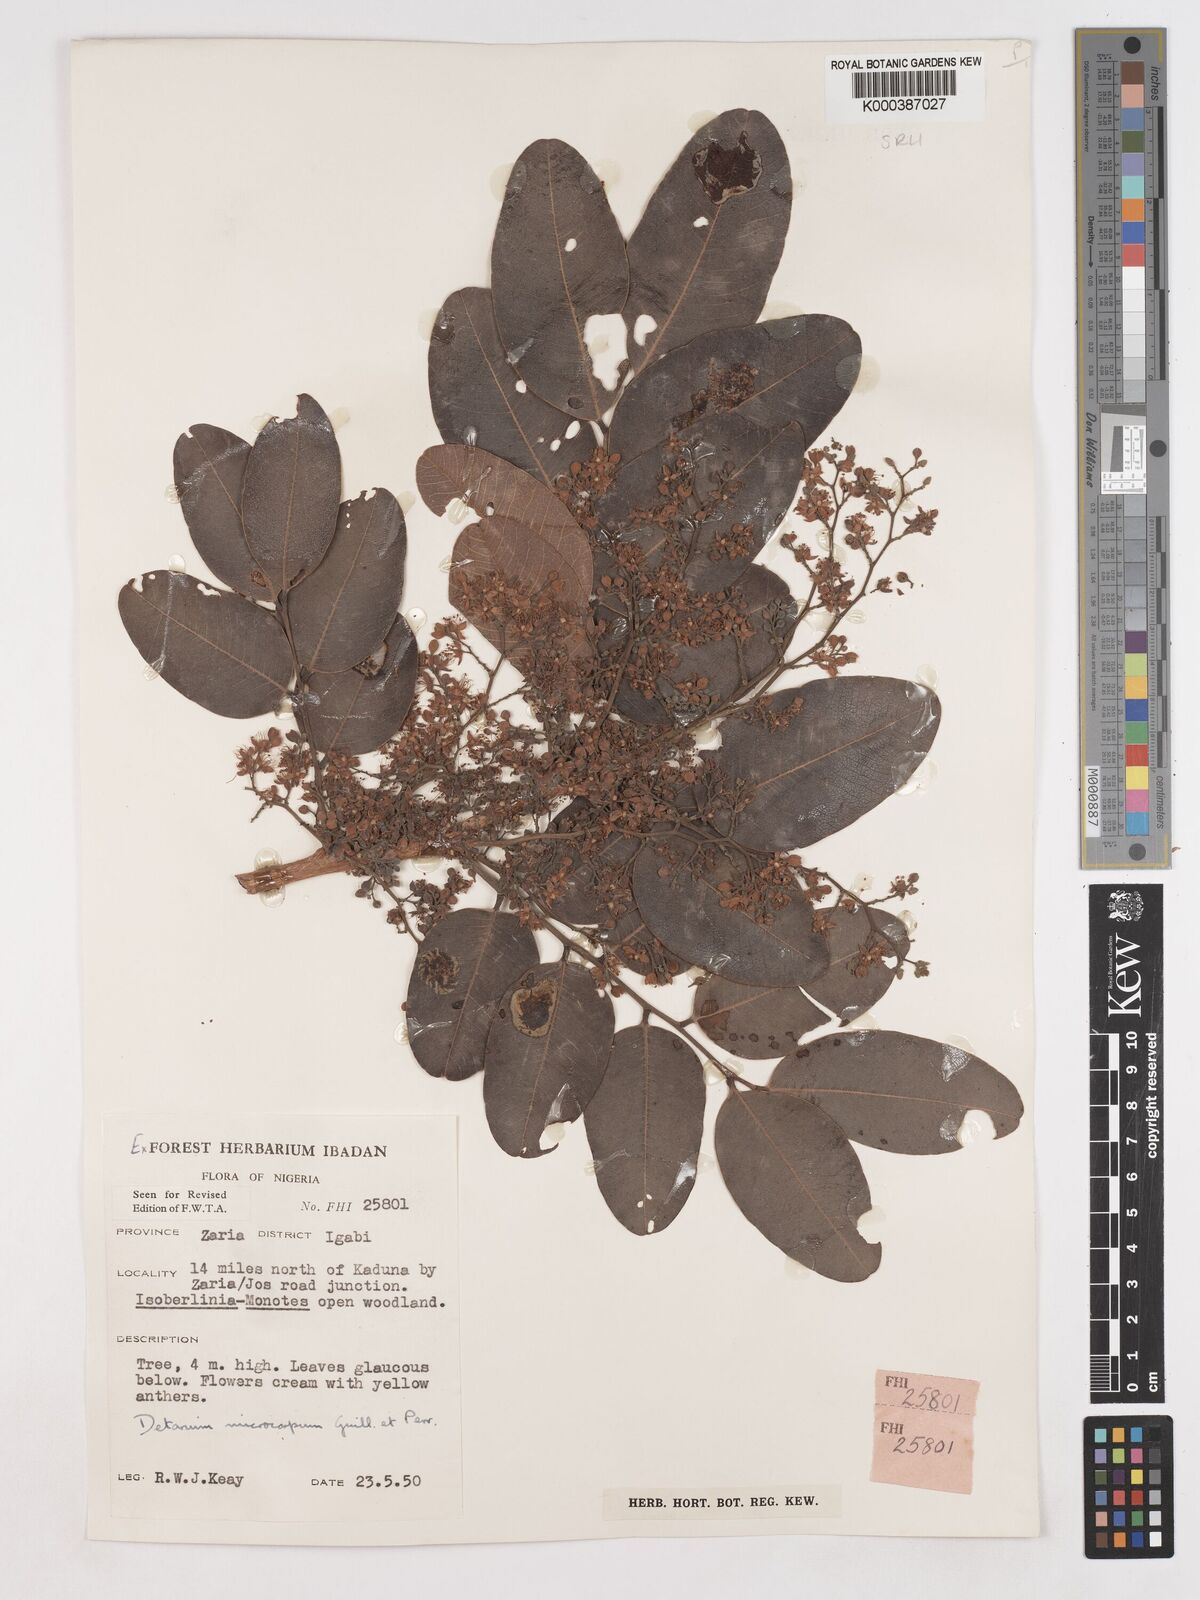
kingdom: Plantae
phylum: Tracheophyta
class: Magnoliopsida
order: Fabales
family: Fabaceae
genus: Detarium
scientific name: Detarium microcarpum
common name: Sweet dattock
